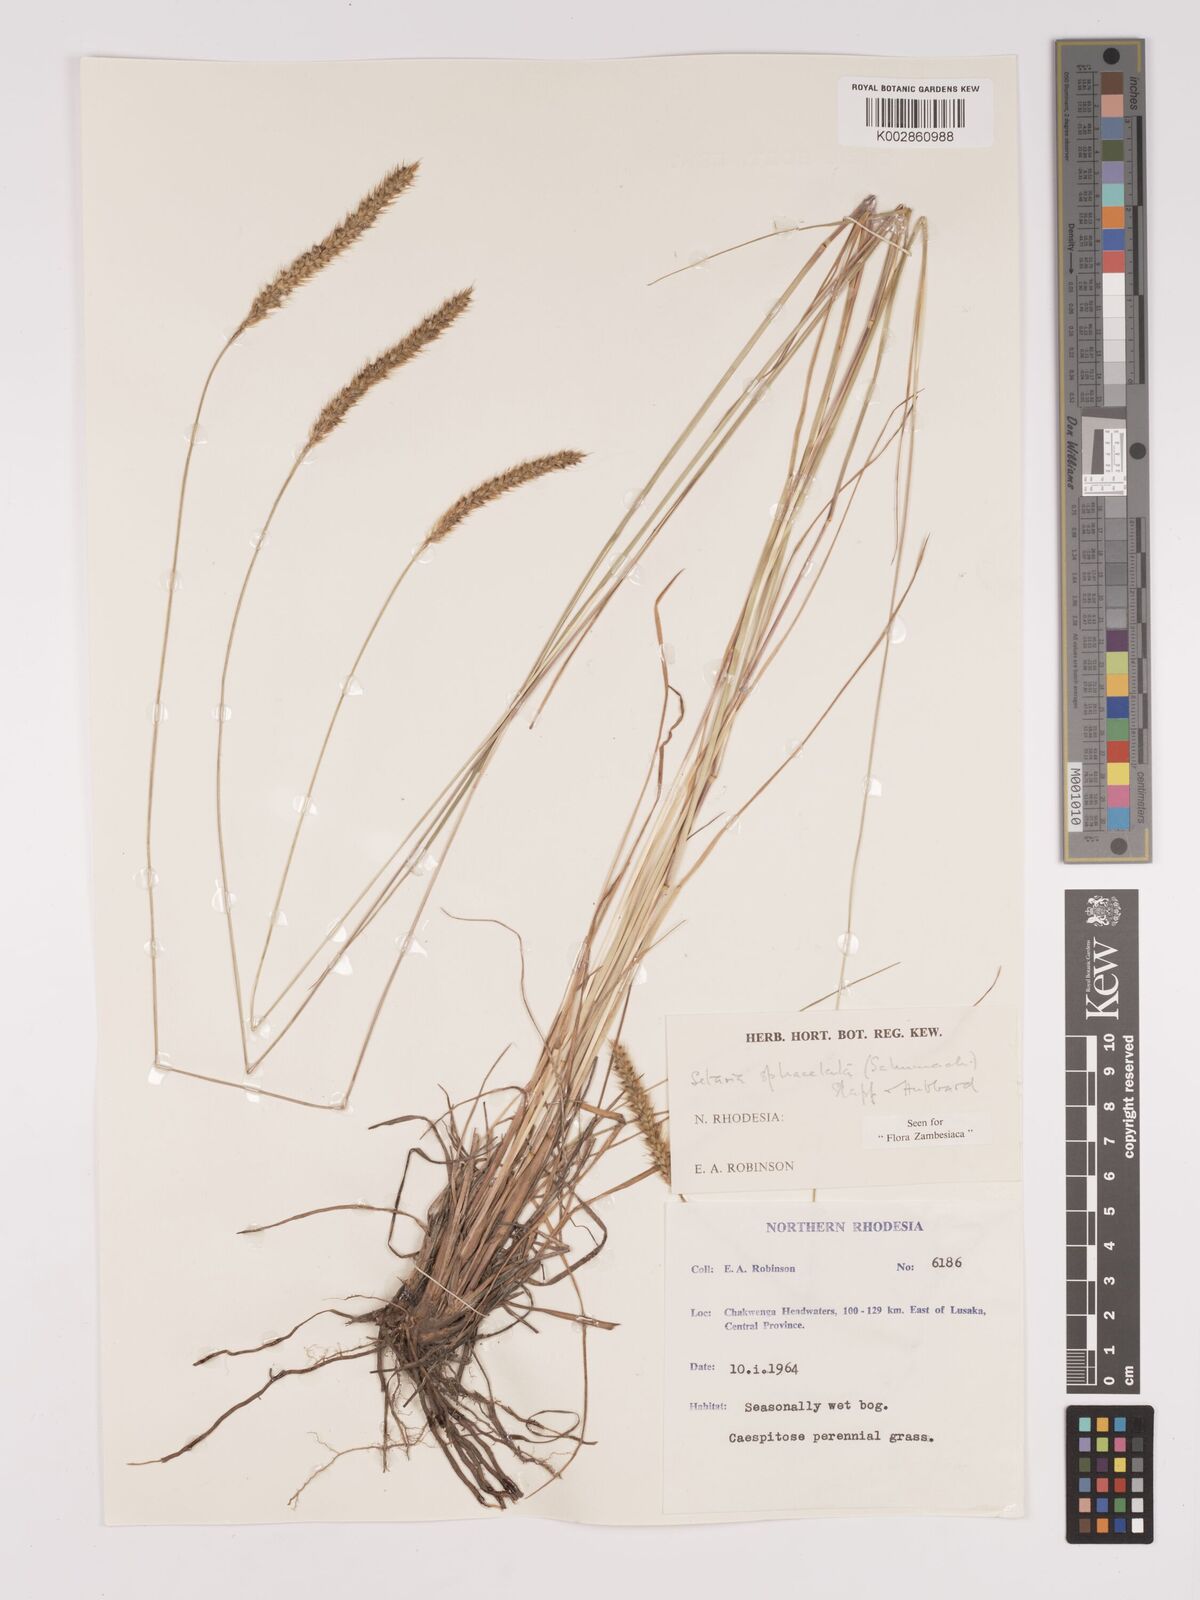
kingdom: Plantae
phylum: Tracheophyta
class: Liliopsida
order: Poales
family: Poaceae
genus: Setaria
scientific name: Setaria
